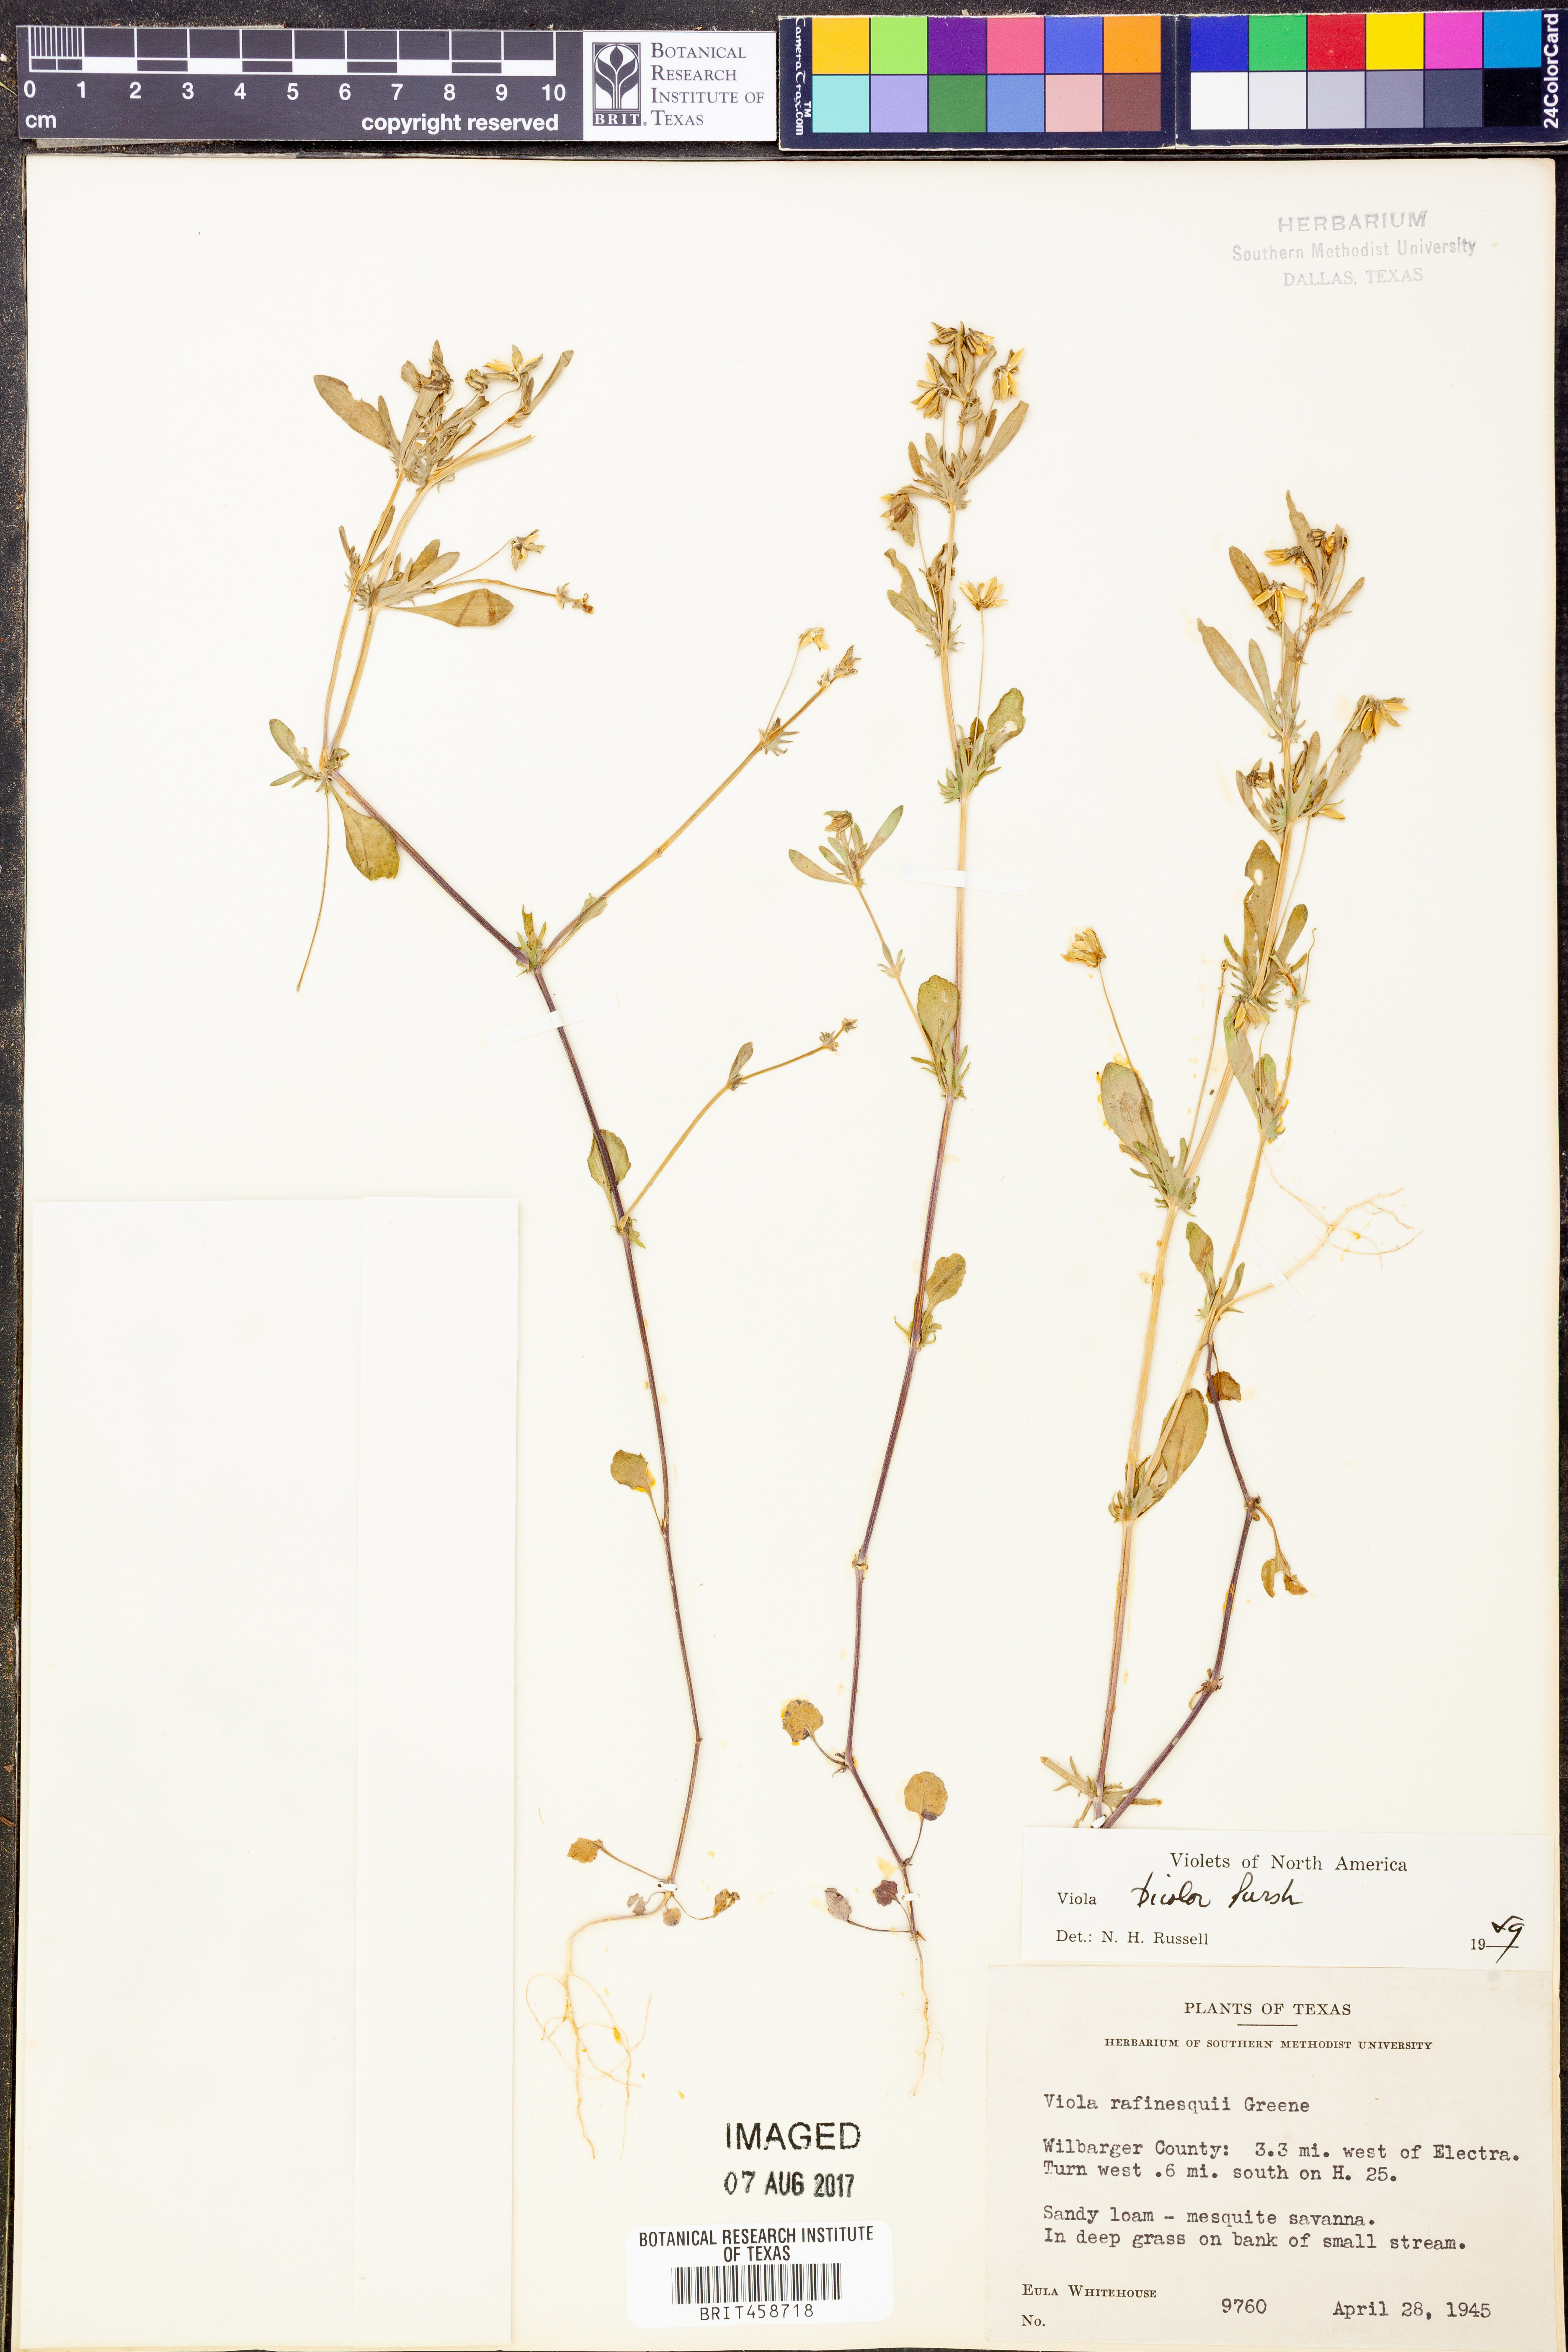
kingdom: Plantae
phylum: Tracheophyta
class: Magnoliopsida
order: Malpighiales
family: Violaceae
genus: Viola
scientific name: Viola rafinesquei
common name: American field pansy
